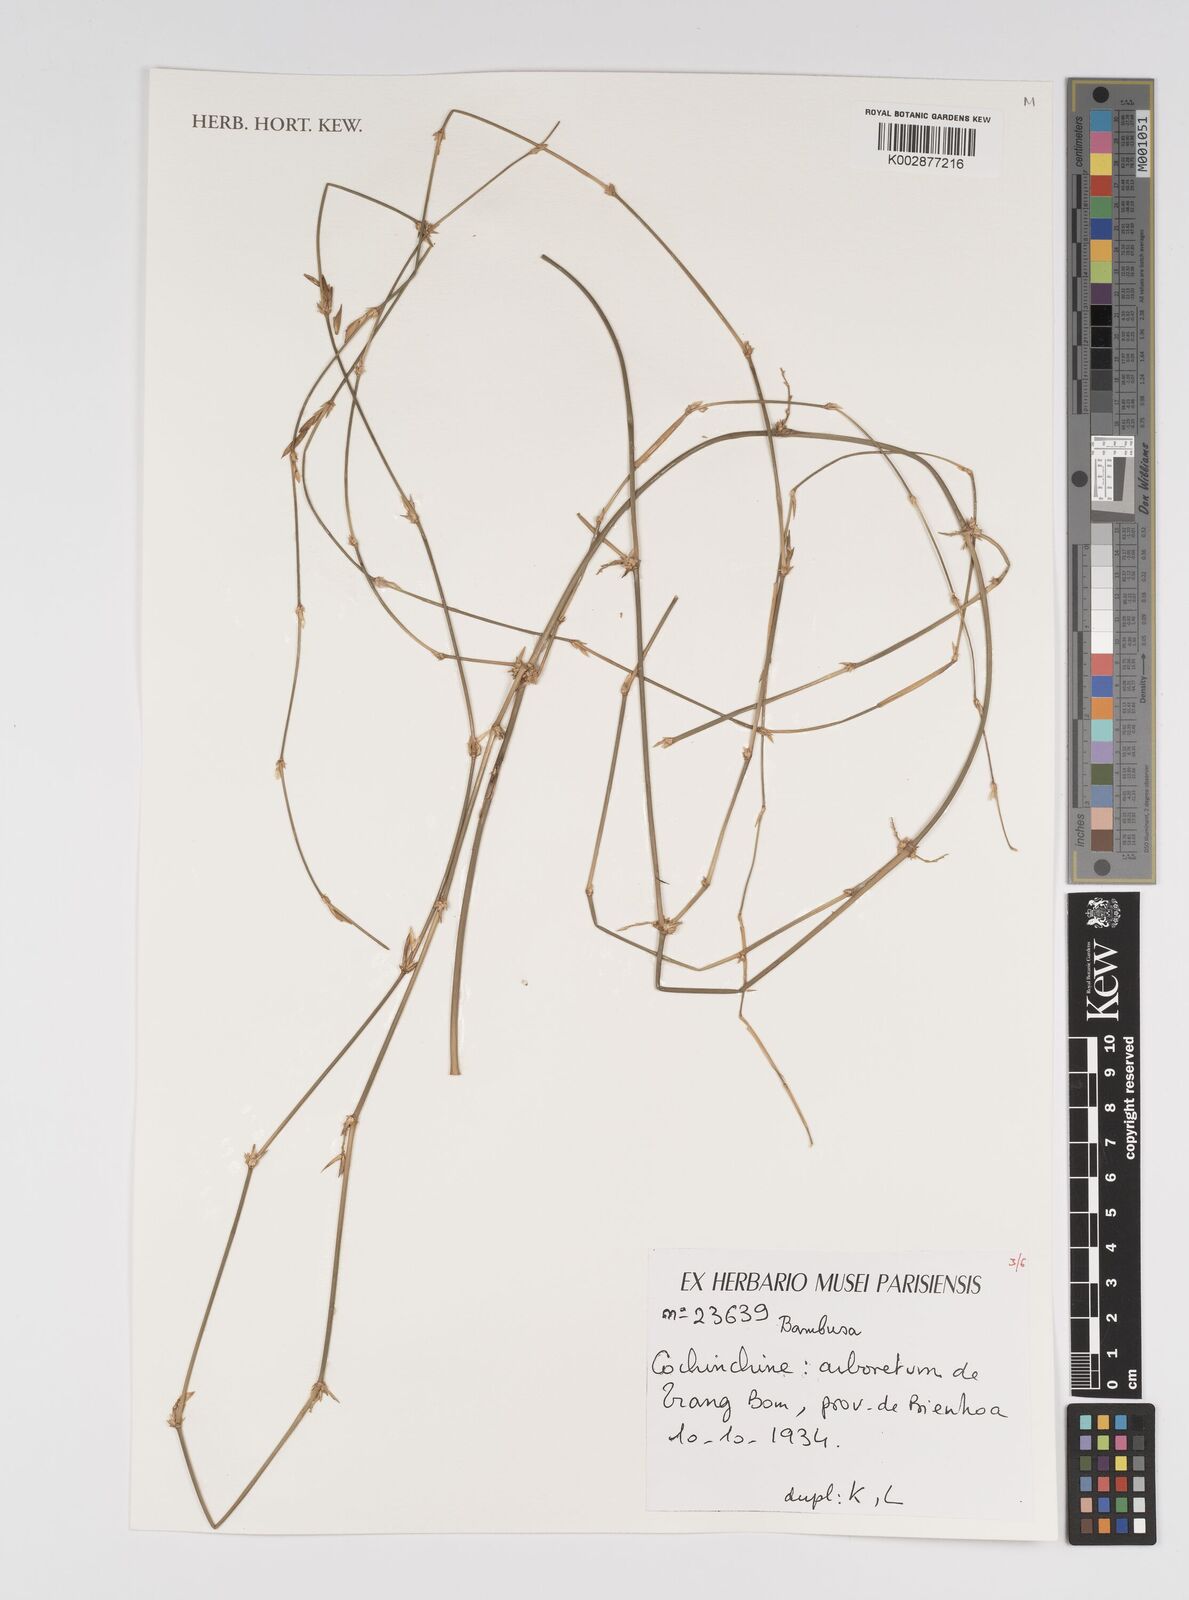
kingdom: Plantae
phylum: Tracheophyta
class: Liliopsida
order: Poales
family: Poaceae
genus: Bambusa
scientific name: Bambusa
